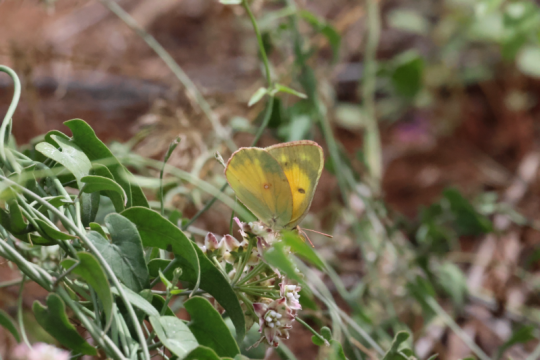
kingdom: Animalia
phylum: Arthropoda
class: Insecta
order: Lepidoptera
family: Pieridae
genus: Colias
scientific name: Colias eurytheme
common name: Orange Sulphur
